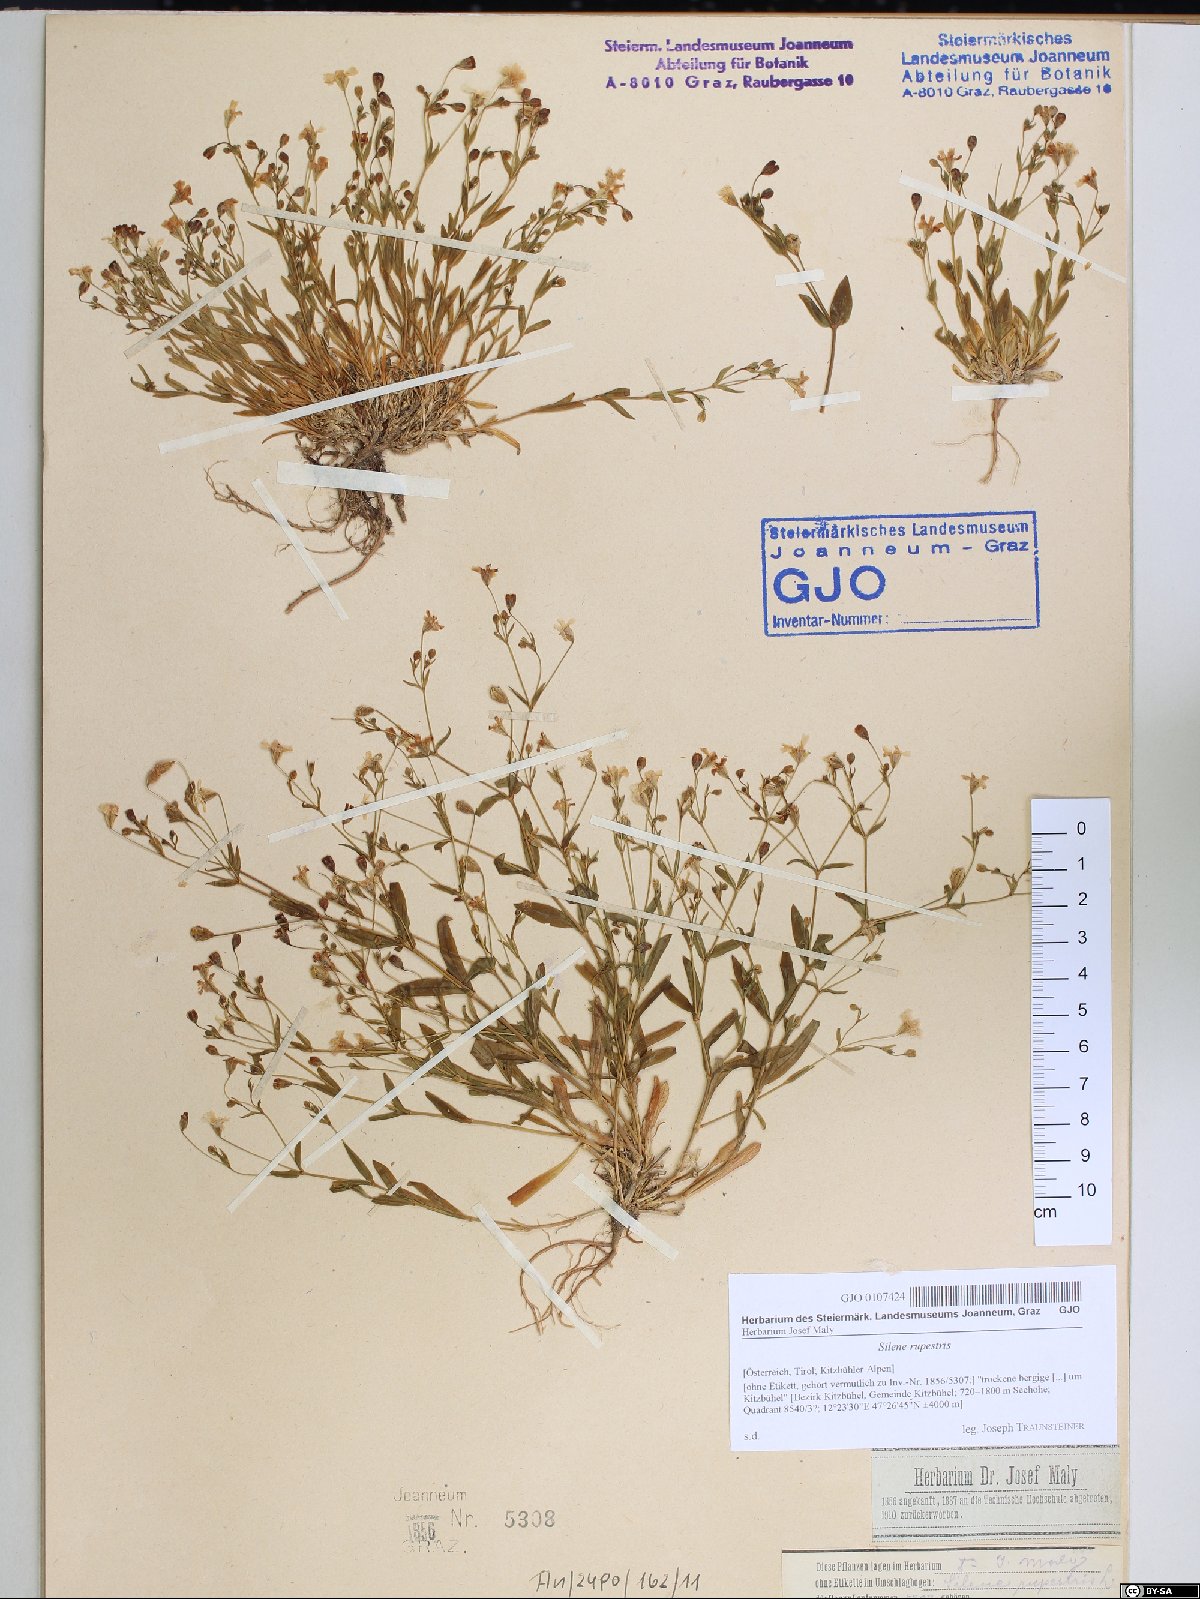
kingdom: Plantae
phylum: Tracheophyta
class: Magnoliopsida
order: Caryophyllales
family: Caryophyllaceae
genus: Atocion
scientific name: Atocion rupestre
